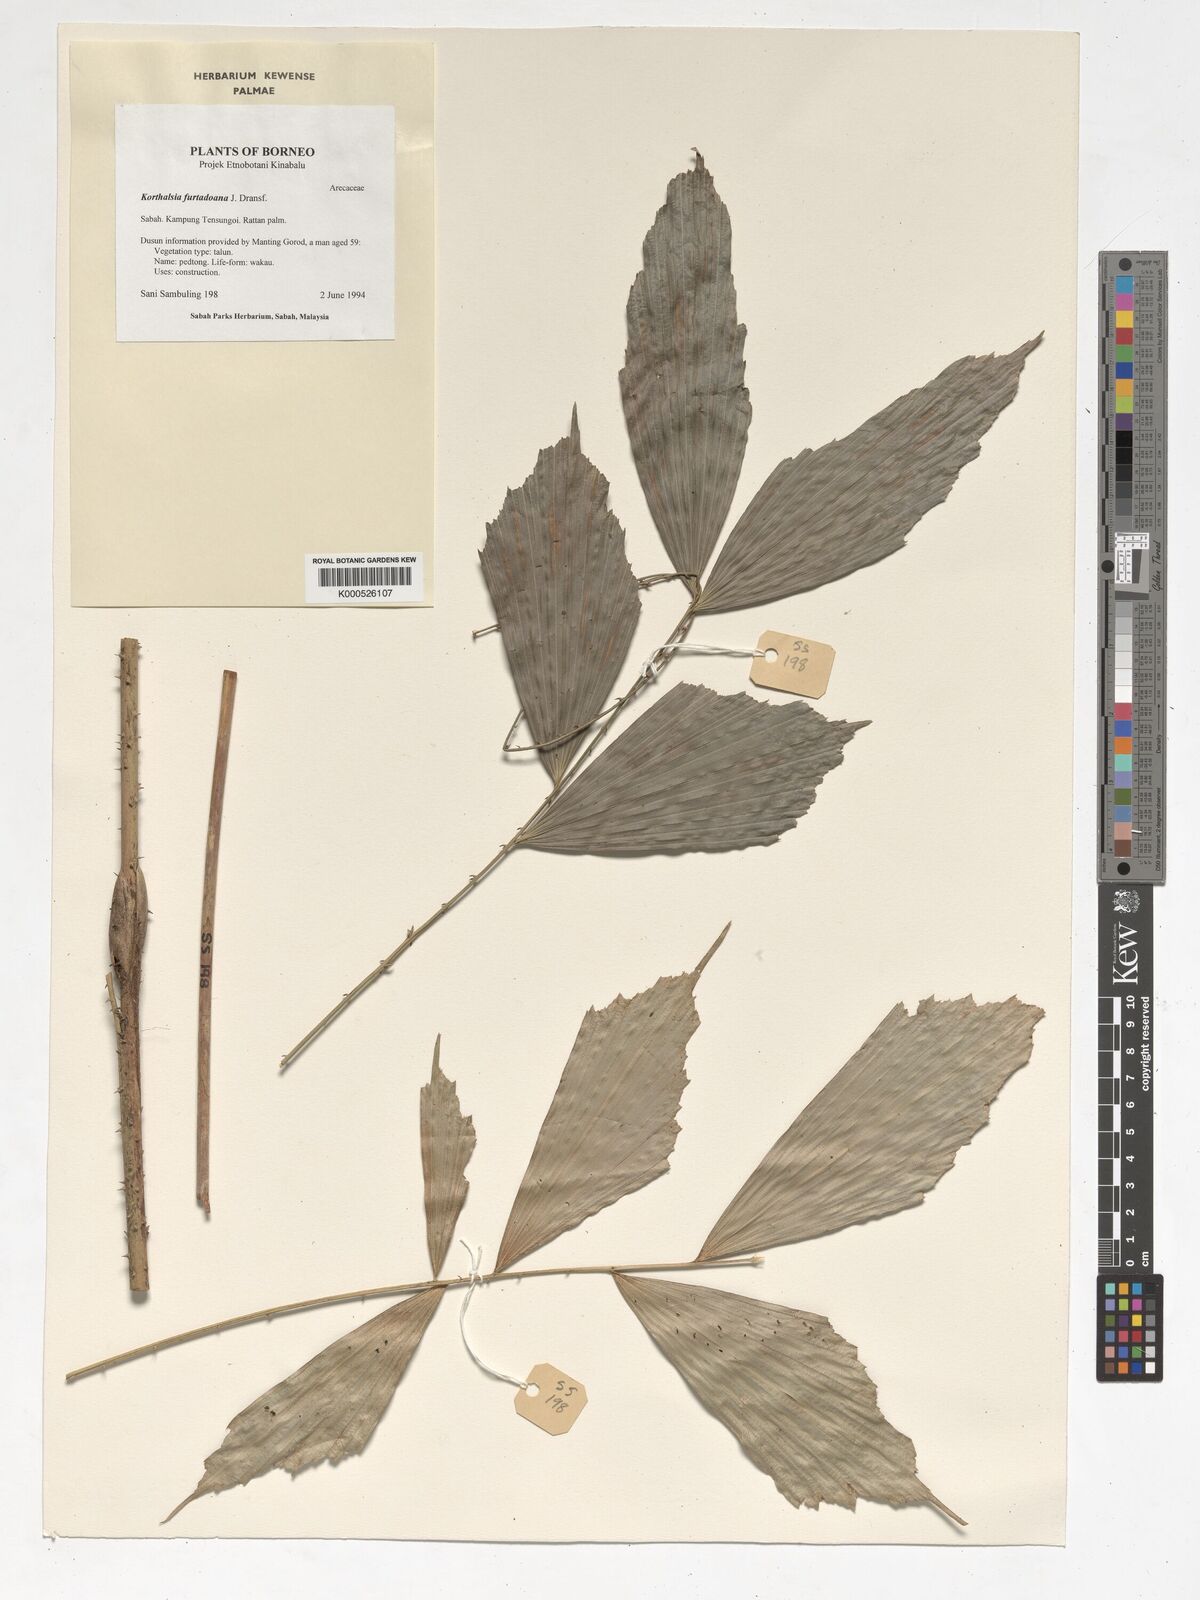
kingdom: Plantae
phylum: Tracheophyta
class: Liliopsida
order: Arecales
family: Arecaceae
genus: Korthalsia
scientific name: Korthalsia furtadoana
